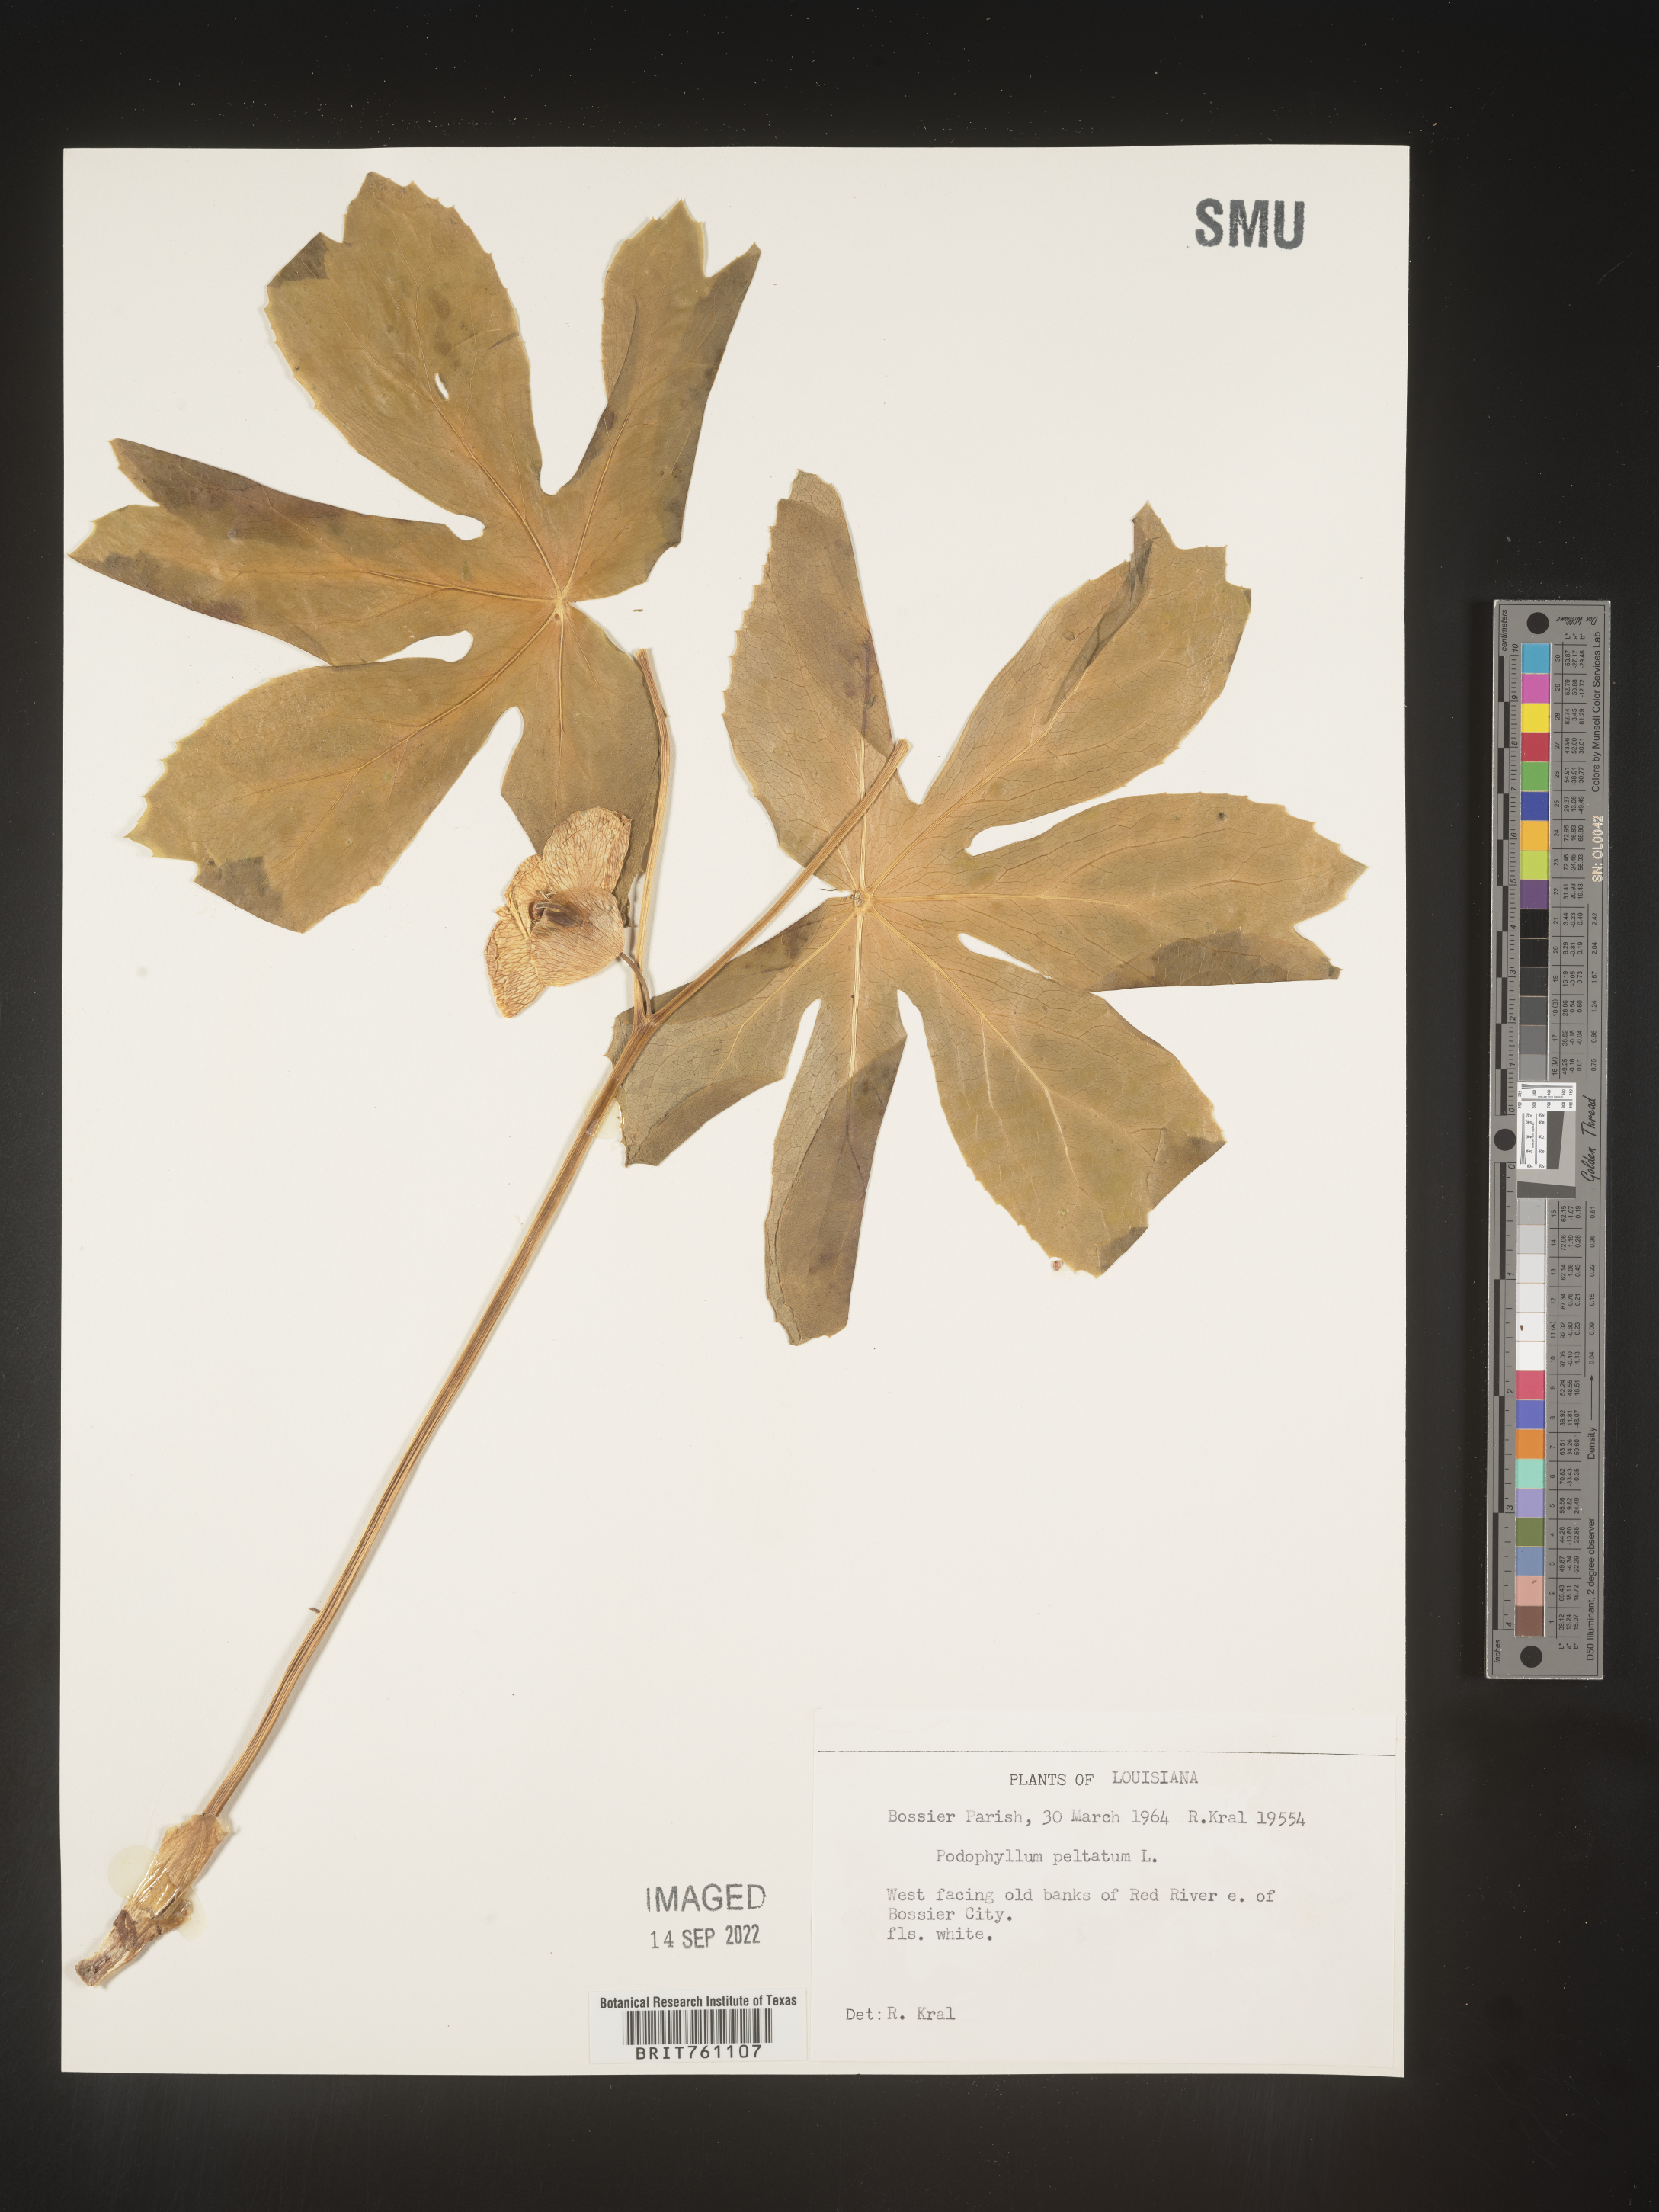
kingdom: Plantae
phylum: Tracheophyta
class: Magnoliopsida
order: Ranunculales
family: Berberidaceae
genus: Podophyllum
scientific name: Podophyllum peltatum
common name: Wild mandrake
